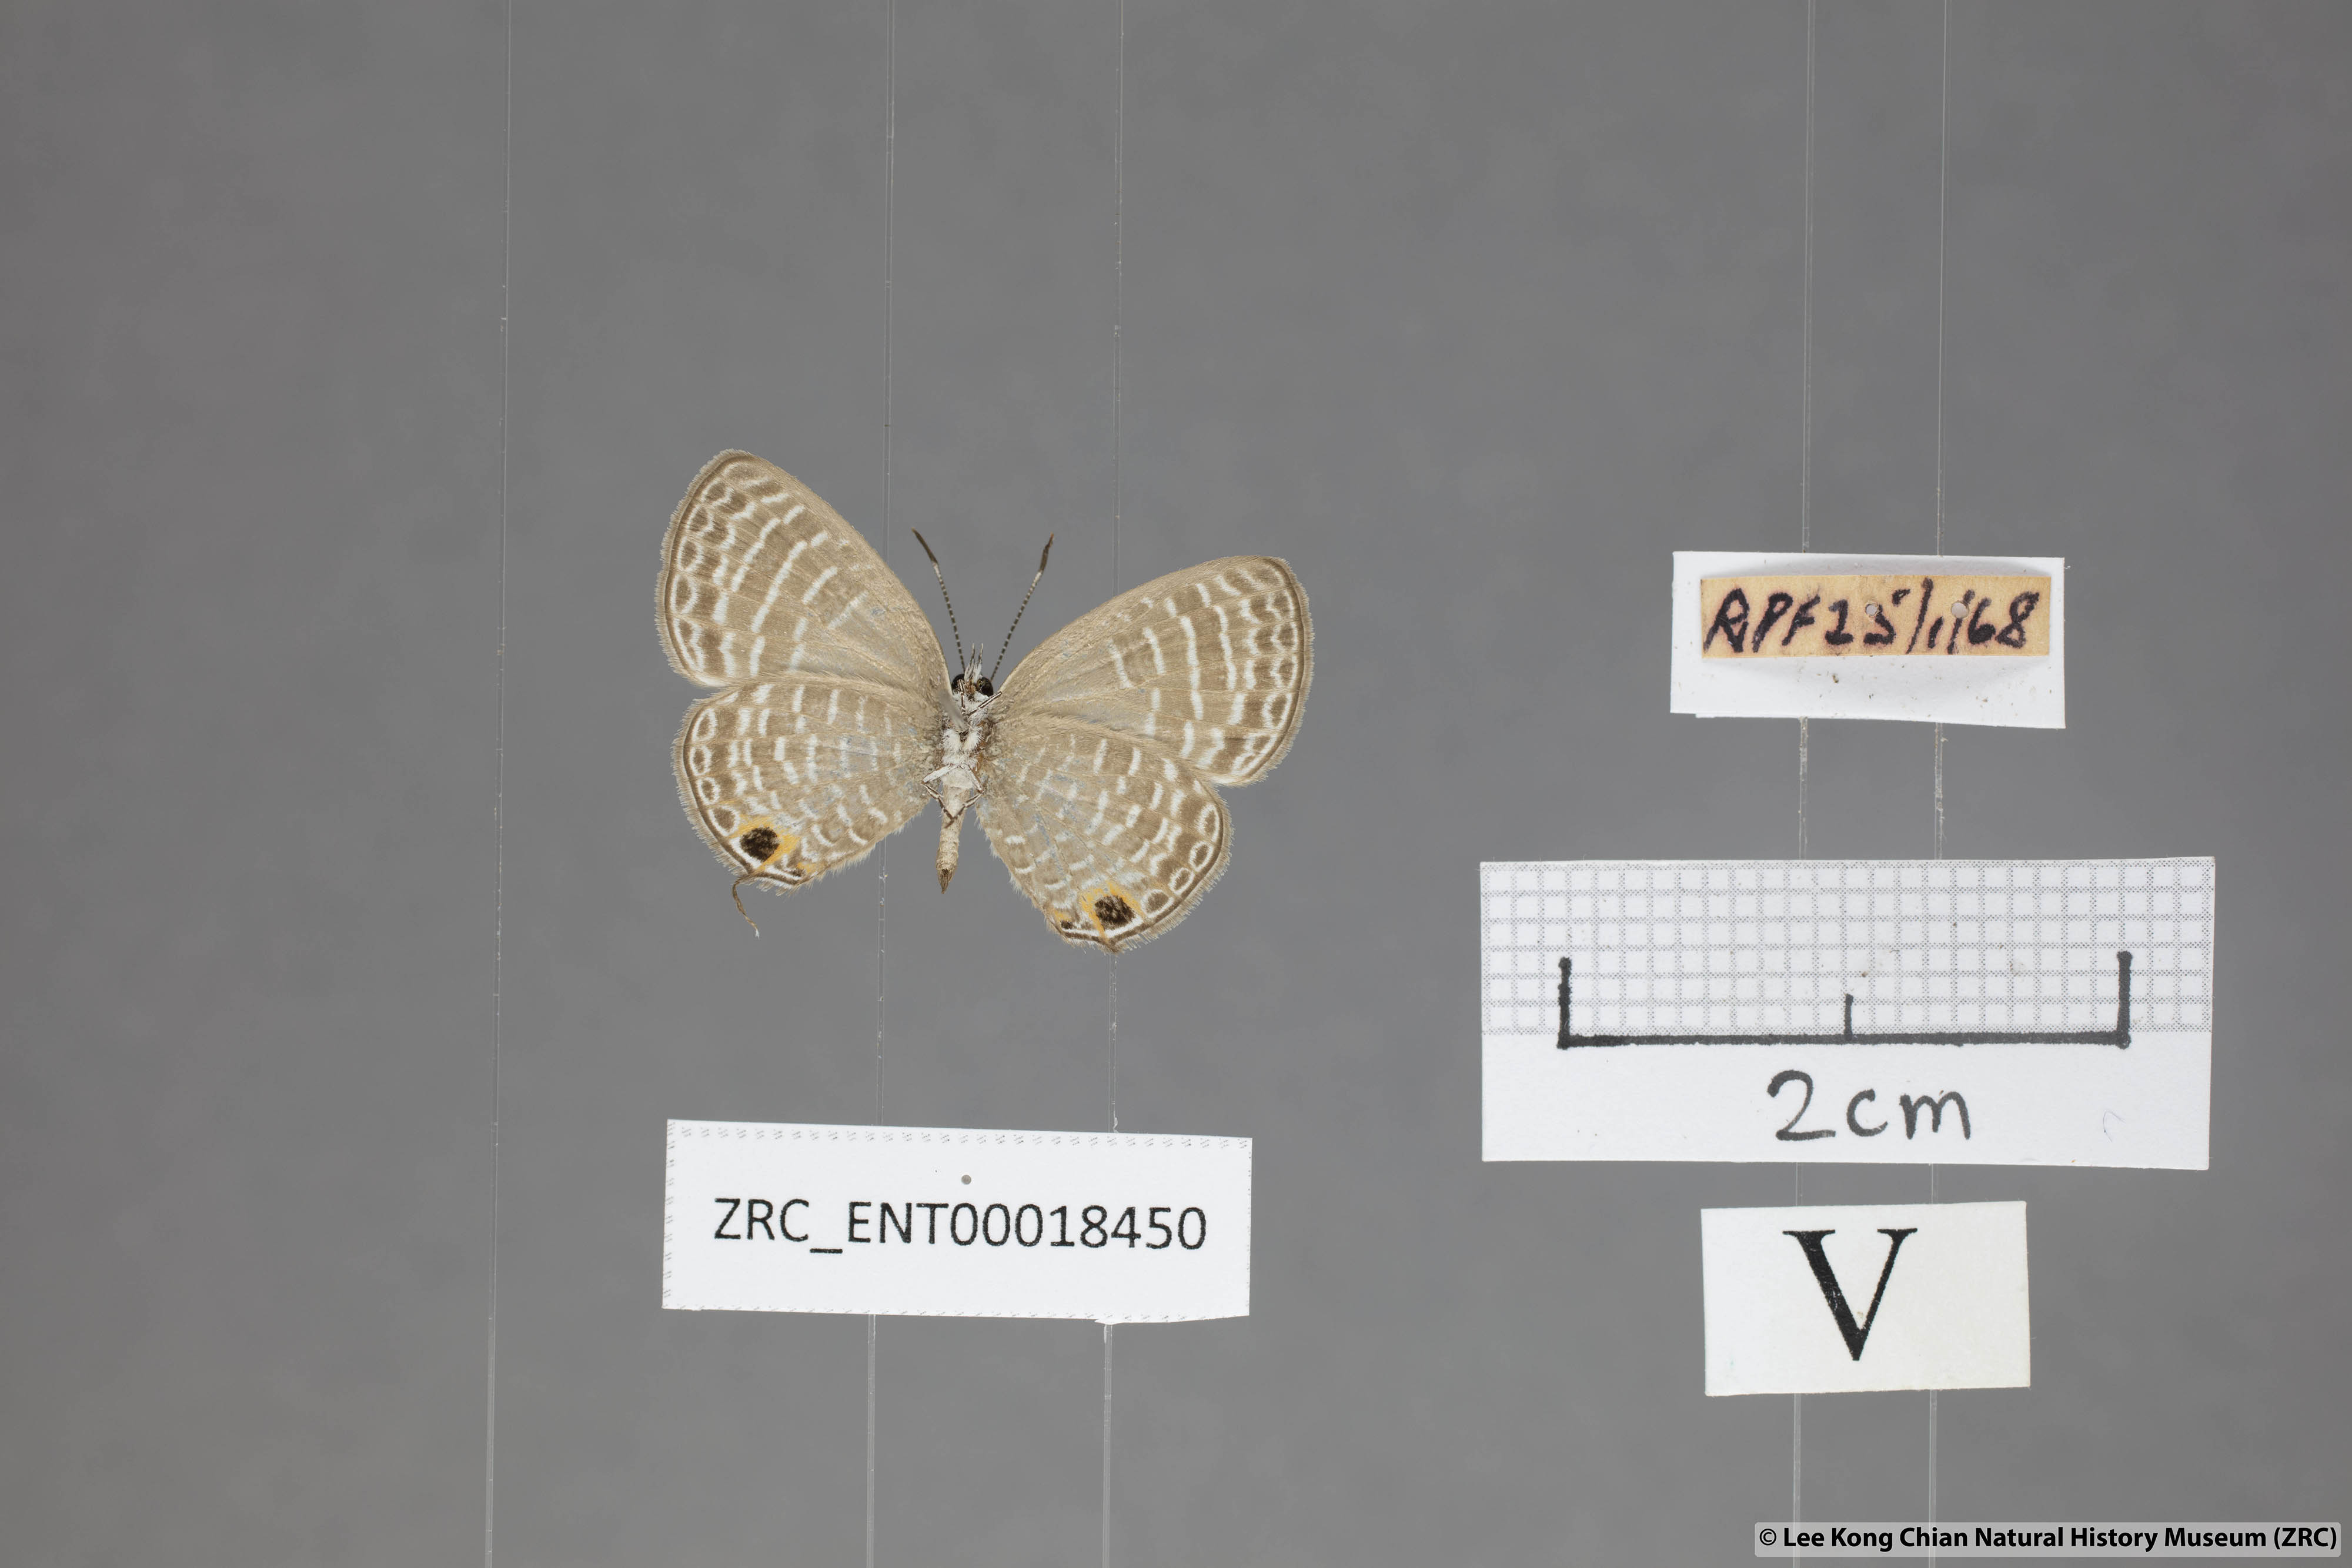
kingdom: Animalia
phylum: Arthropoda
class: Insecta
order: Lepidoptera
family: Lycaenidae
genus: Nacaduba
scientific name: Nacaduba sanaya
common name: Jewel fourline blue
